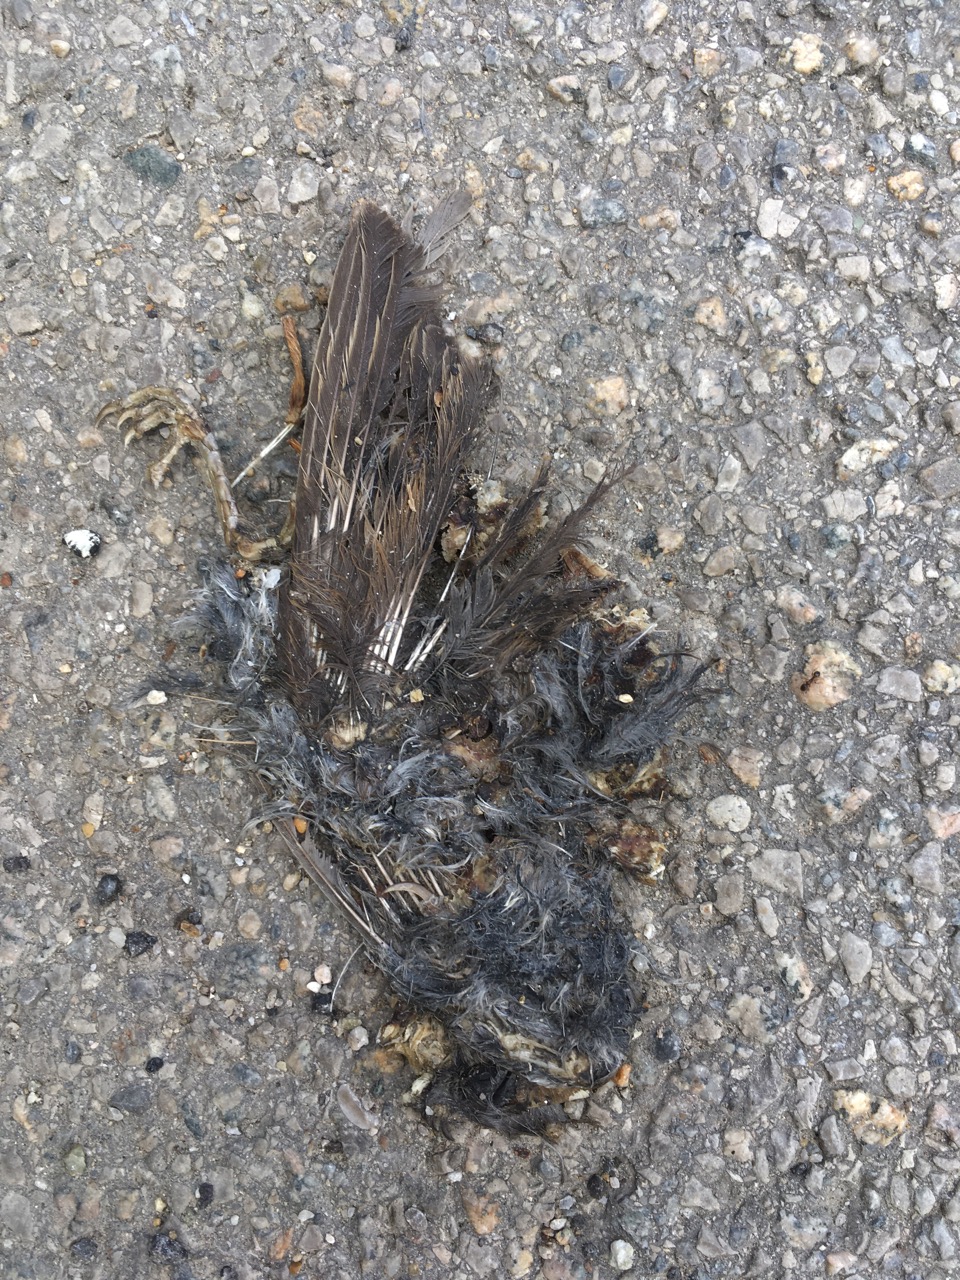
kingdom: Animalia
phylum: Chordata
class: Aves
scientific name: Aves
